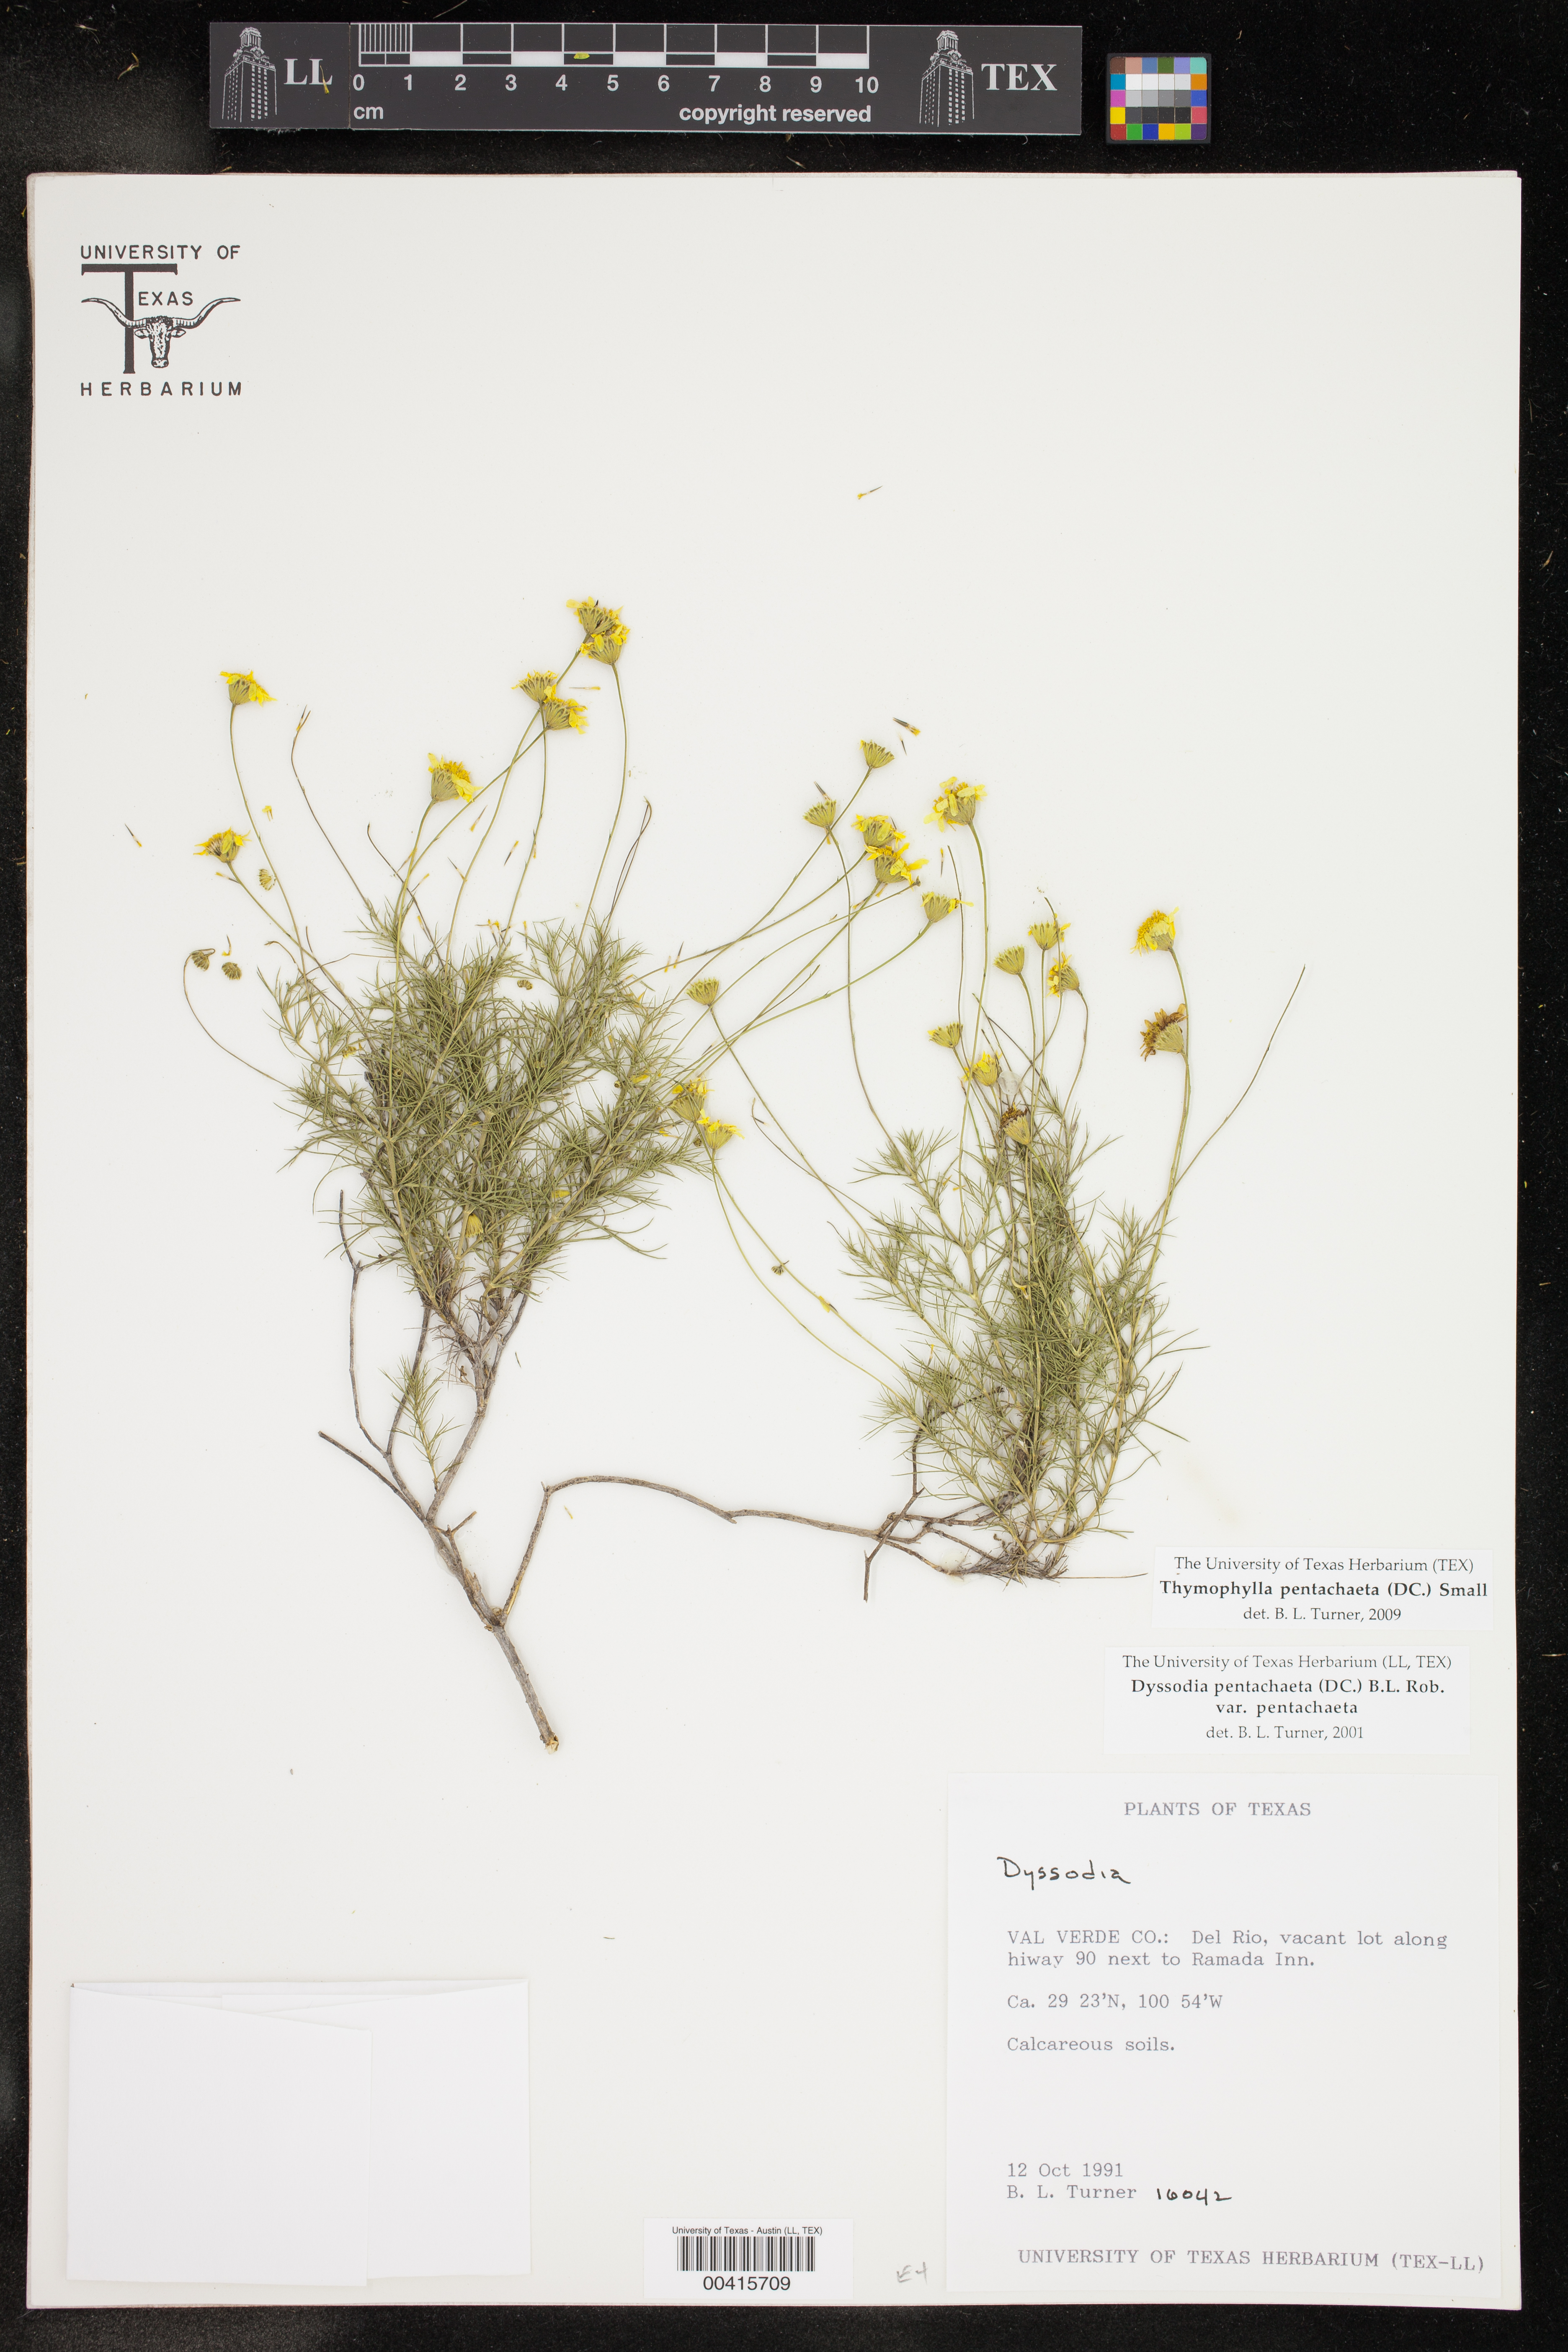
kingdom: Plantae
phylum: Tracheophyta
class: Magnoliopsida
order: Asterales
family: Asteraceae
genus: Thymophylla
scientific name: Thymophylla pentachaeta
